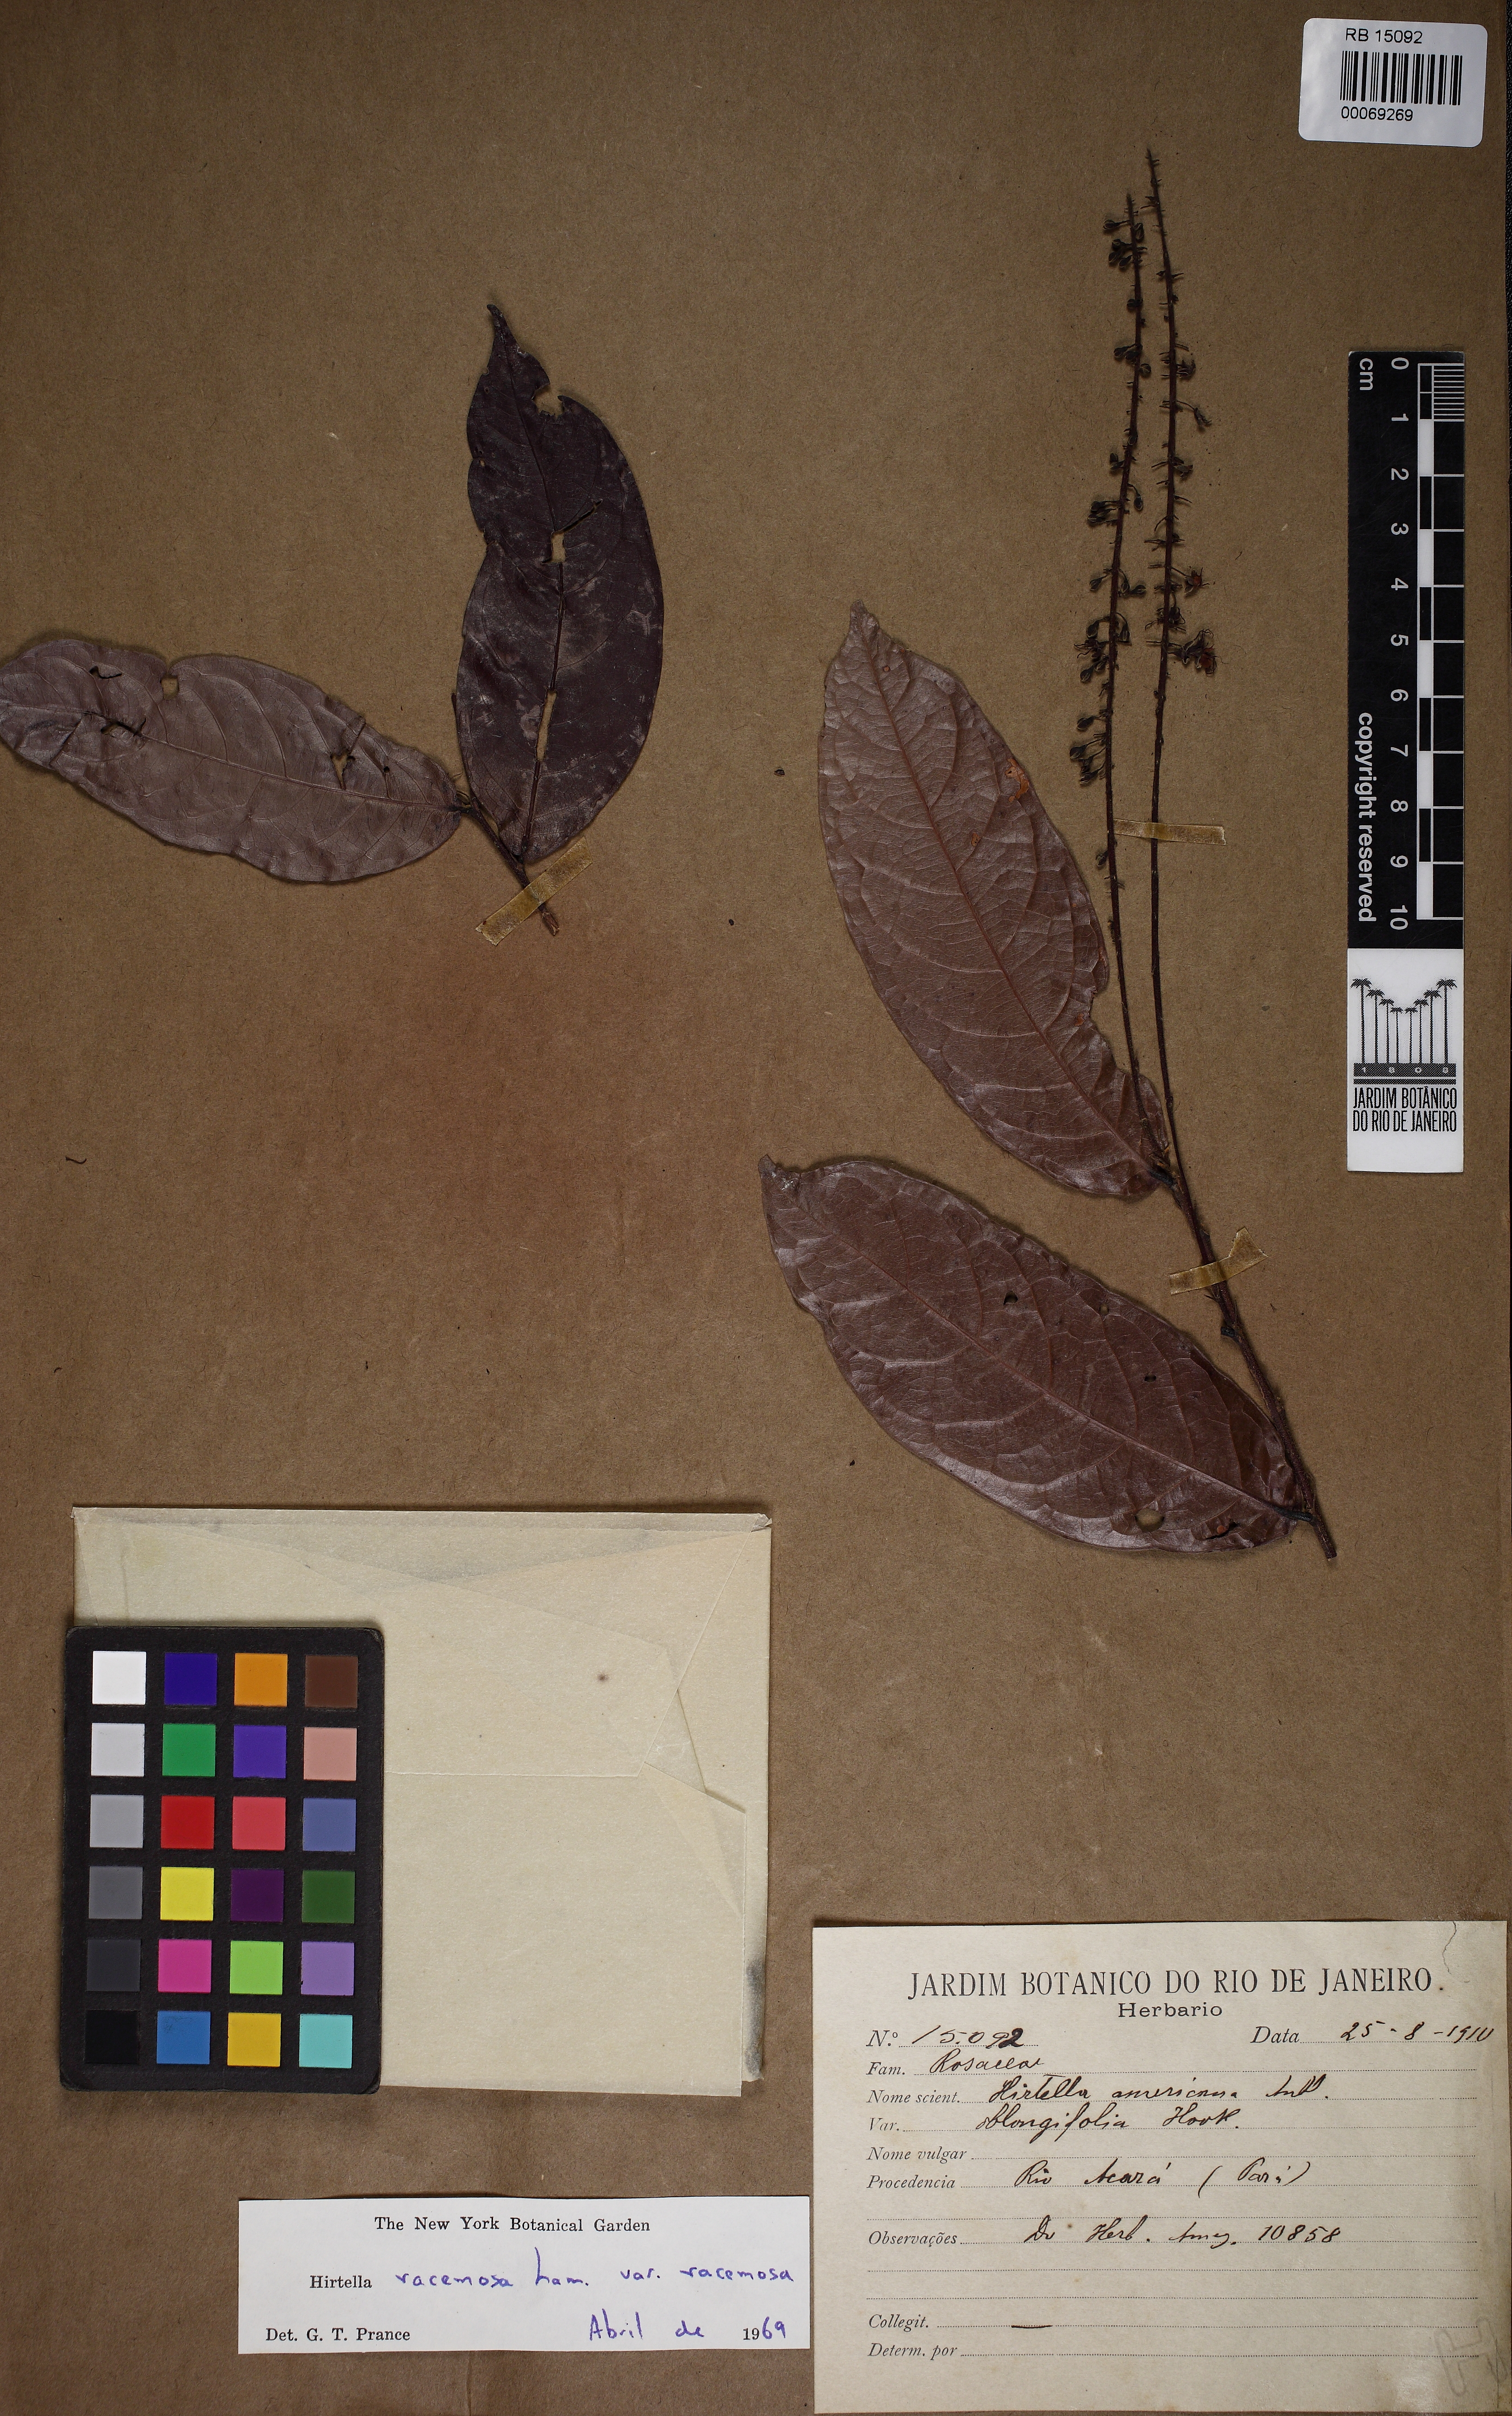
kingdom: Plantae
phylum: Tracheophyta
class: Magnoliopsida
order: Malpighiales
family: Chrysobalanaceae
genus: Hirtella
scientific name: Hirtella racemosa
